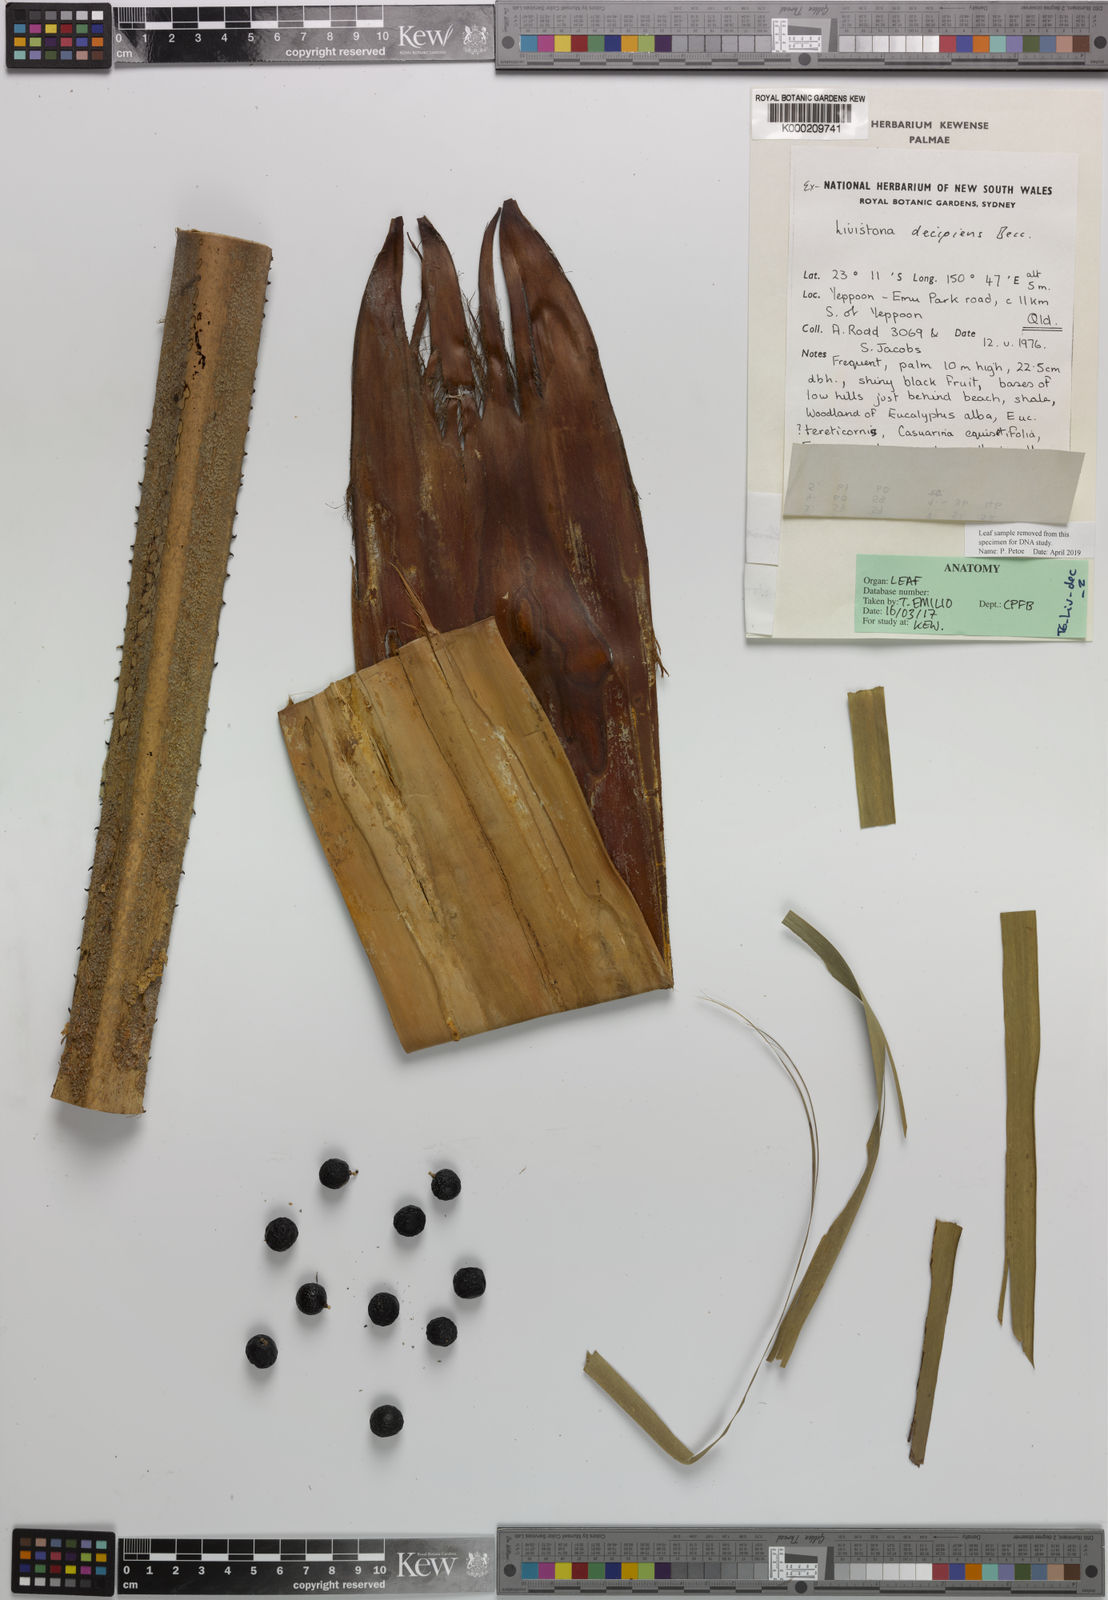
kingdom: Plantae
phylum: Tracheophyta
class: Liliopsida
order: Arecales
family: Arecaceae
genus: Livistona
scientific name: Livistona decora
